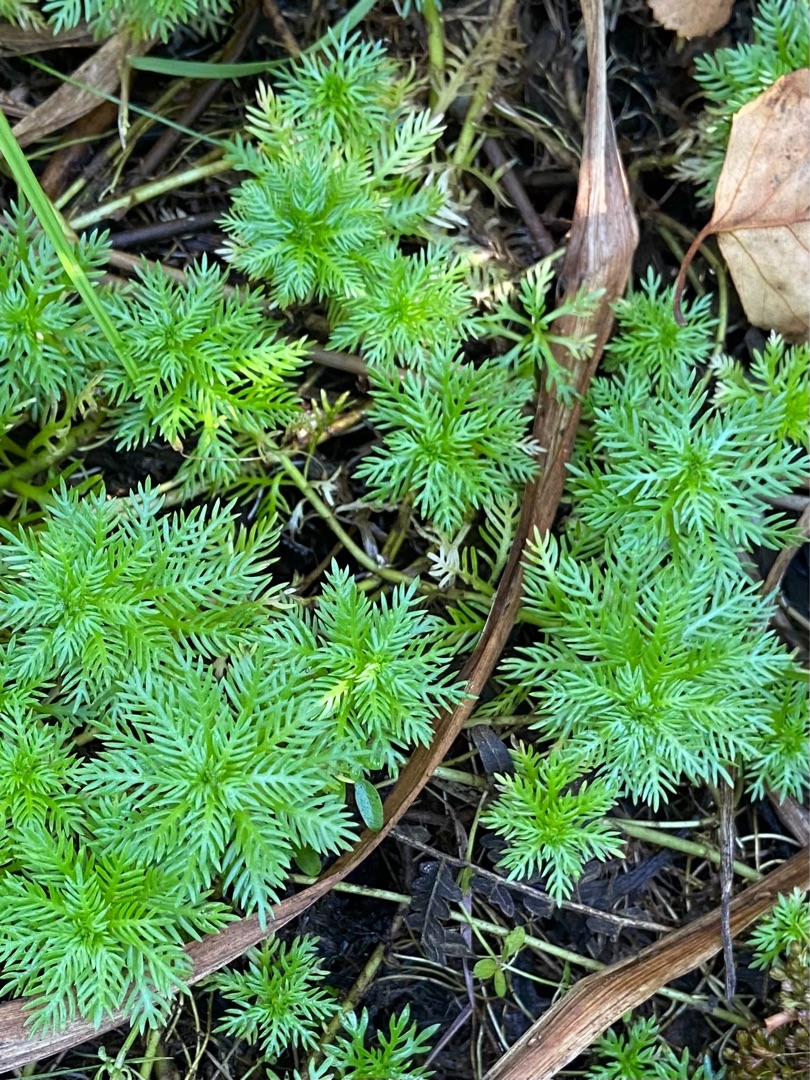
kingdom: Plantae
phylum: Tracheophyta
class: Magnoliopsida
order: Ericales
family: Primulaceae
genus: Hottonia
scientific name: Hottonia palustris
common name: Vandrøllike
